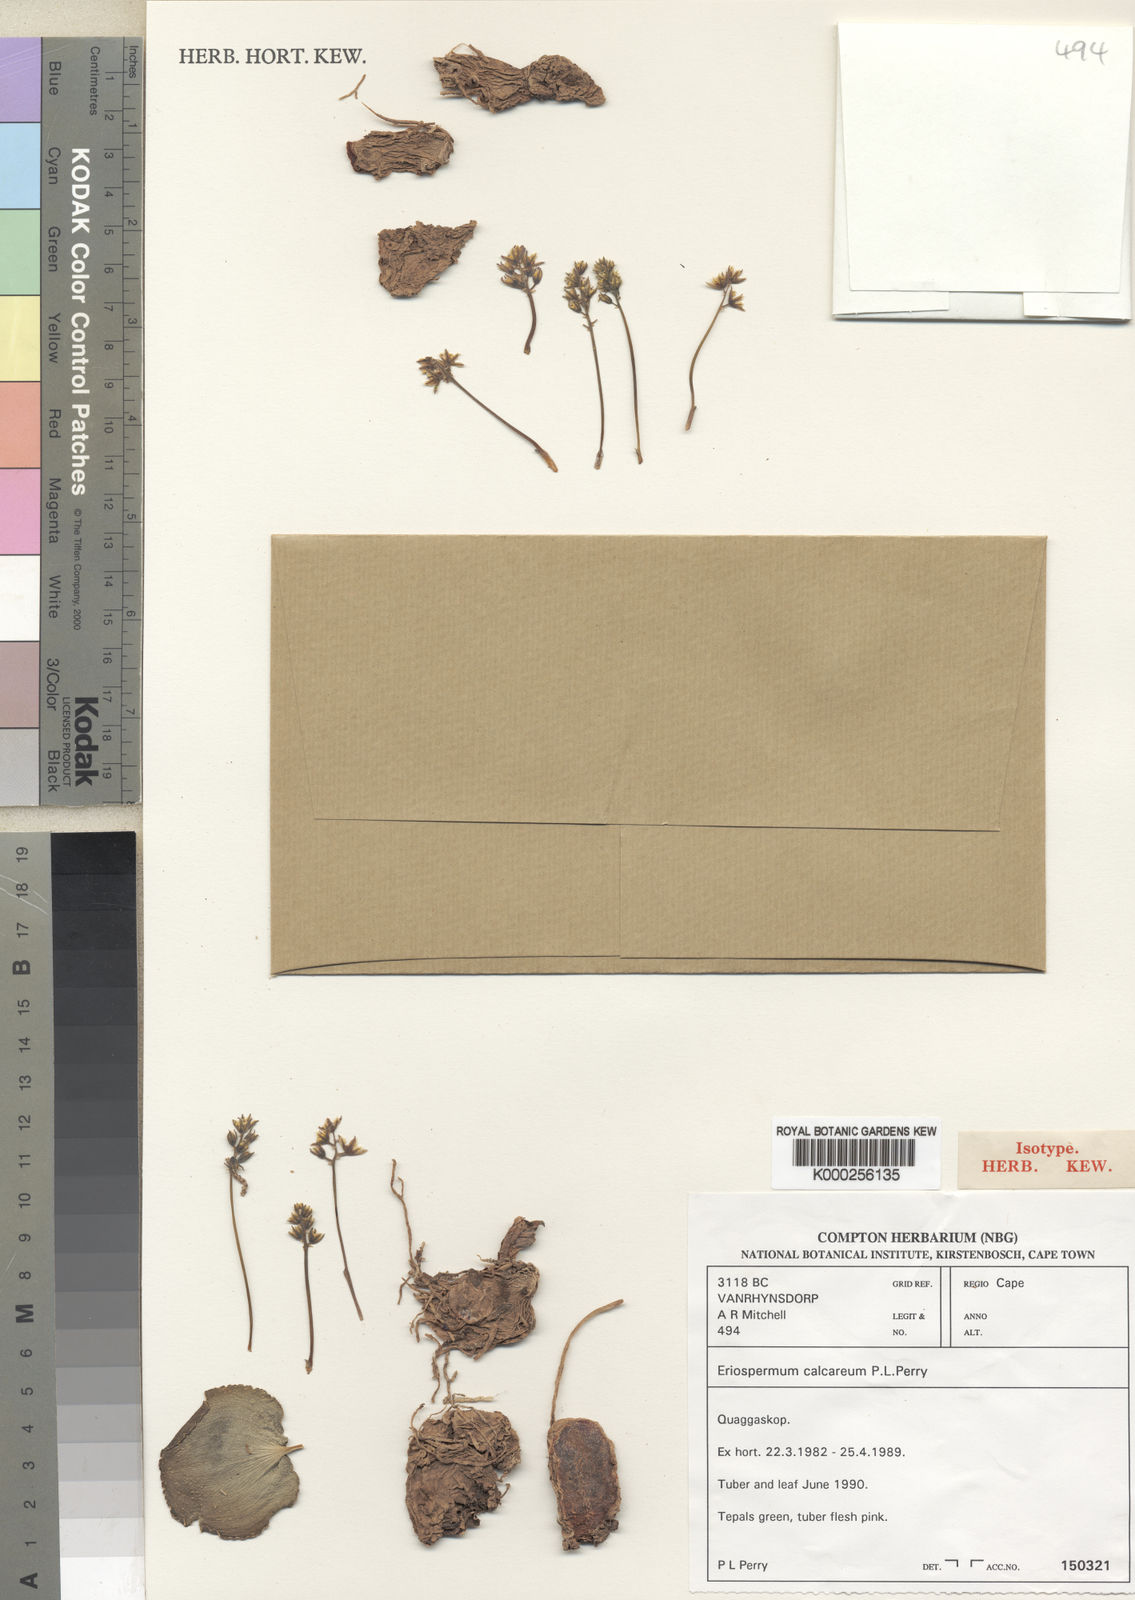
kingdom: Plantae
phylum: Tracheophyta
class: Liliopsida
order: Asparagales
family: Asparagaceae
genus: Eriospermum
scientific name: Eriospermum calcareum
